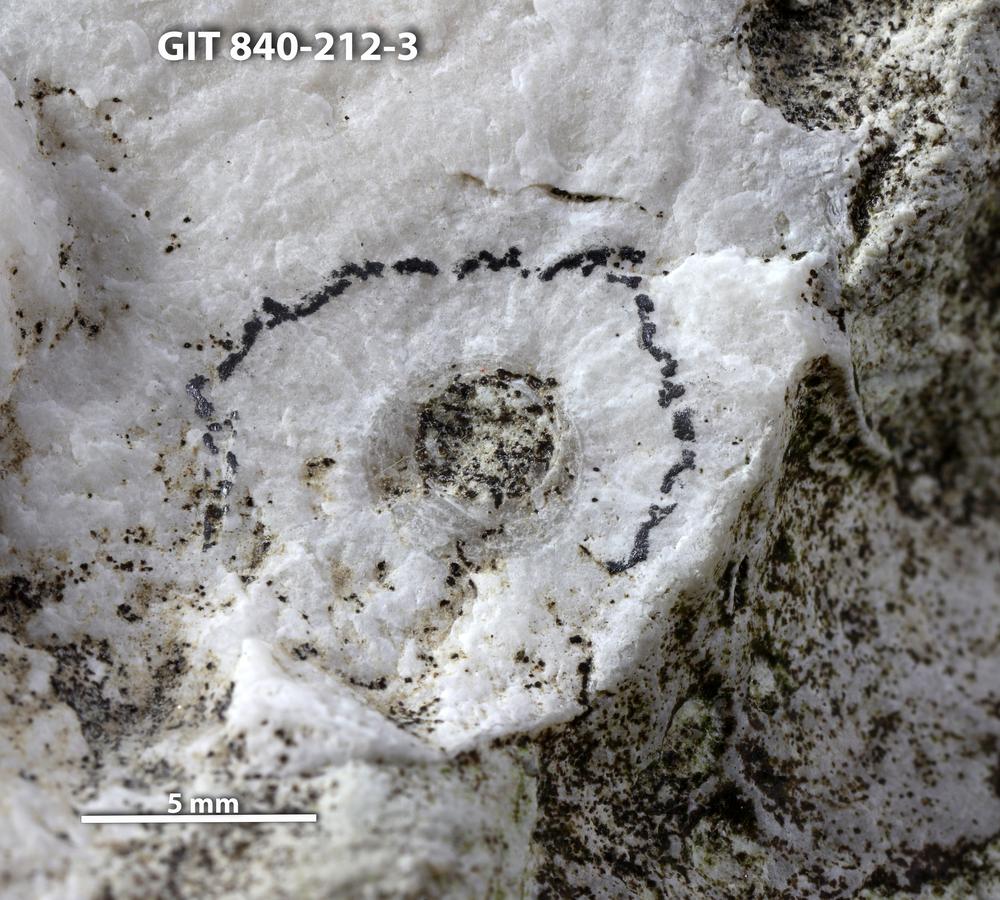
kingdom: Animalia
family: Cornulitidae
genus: Cornulites
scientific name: Cornulites
